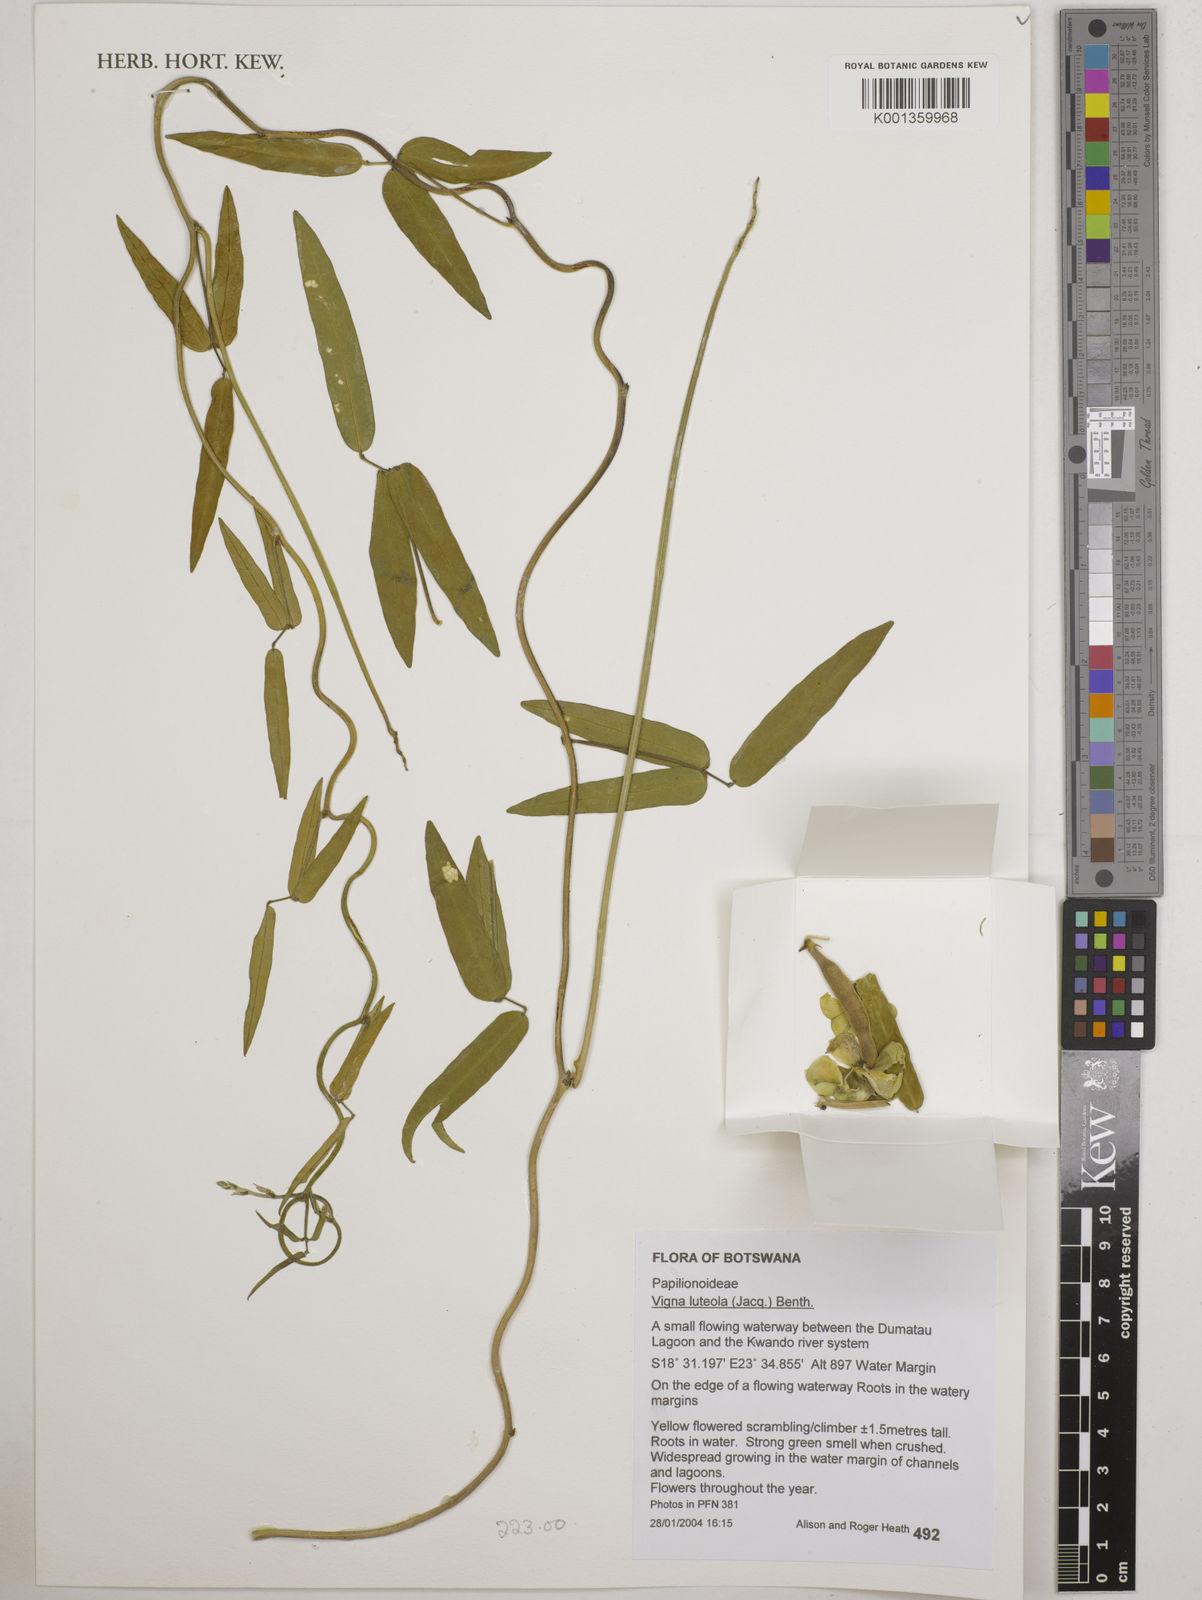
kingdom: Plantae
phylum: Tracheophyta
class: Magnoliopsida
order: Fabales
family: Fabaceae
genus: Vigna
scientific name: Vigna luteola
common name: Hairypod cowpea
